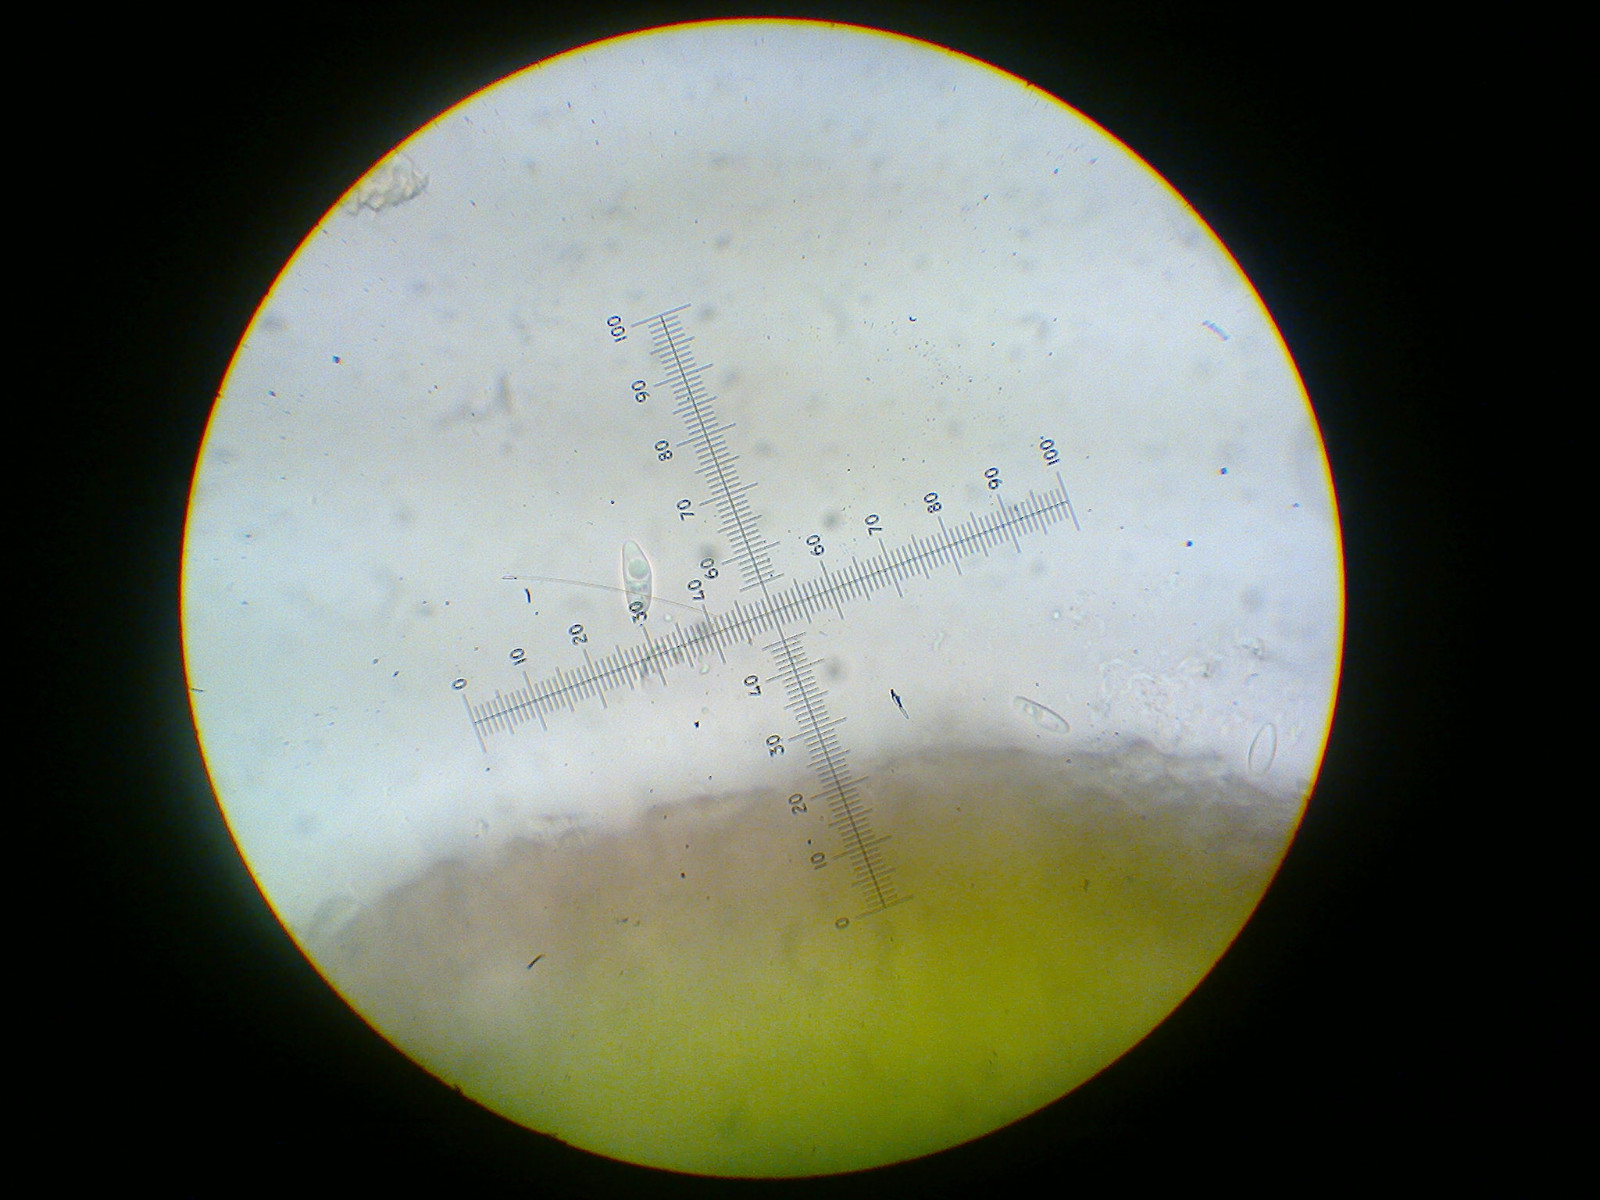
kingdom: Fungi
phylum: Ascomycota
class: Lecanoromycetes
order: Lecanorales
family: Ramalinaceae
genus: Lecania
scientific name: Lecania cyrtella
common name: hylde-lecania
